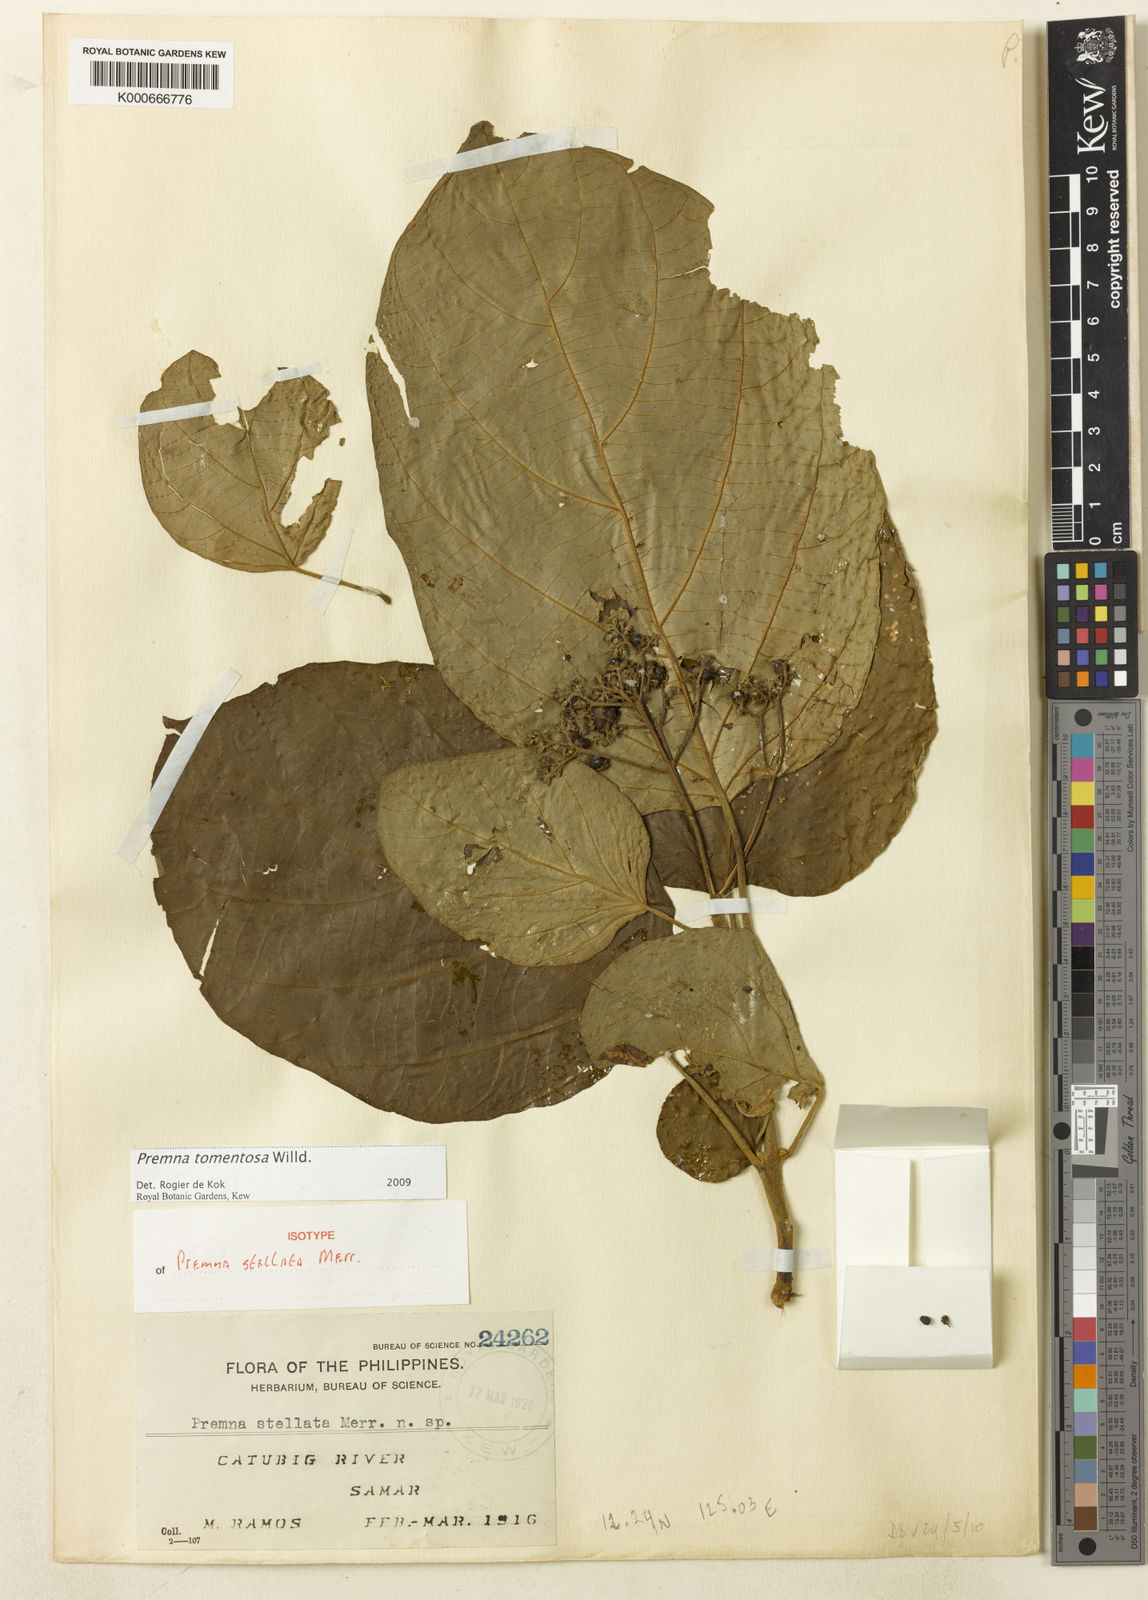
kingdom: Plantae
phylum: Tracheophyta
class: Magnoliopsida
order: Lamiales
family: Lamiaceae
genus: Premna
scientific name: Premna tomentosa
